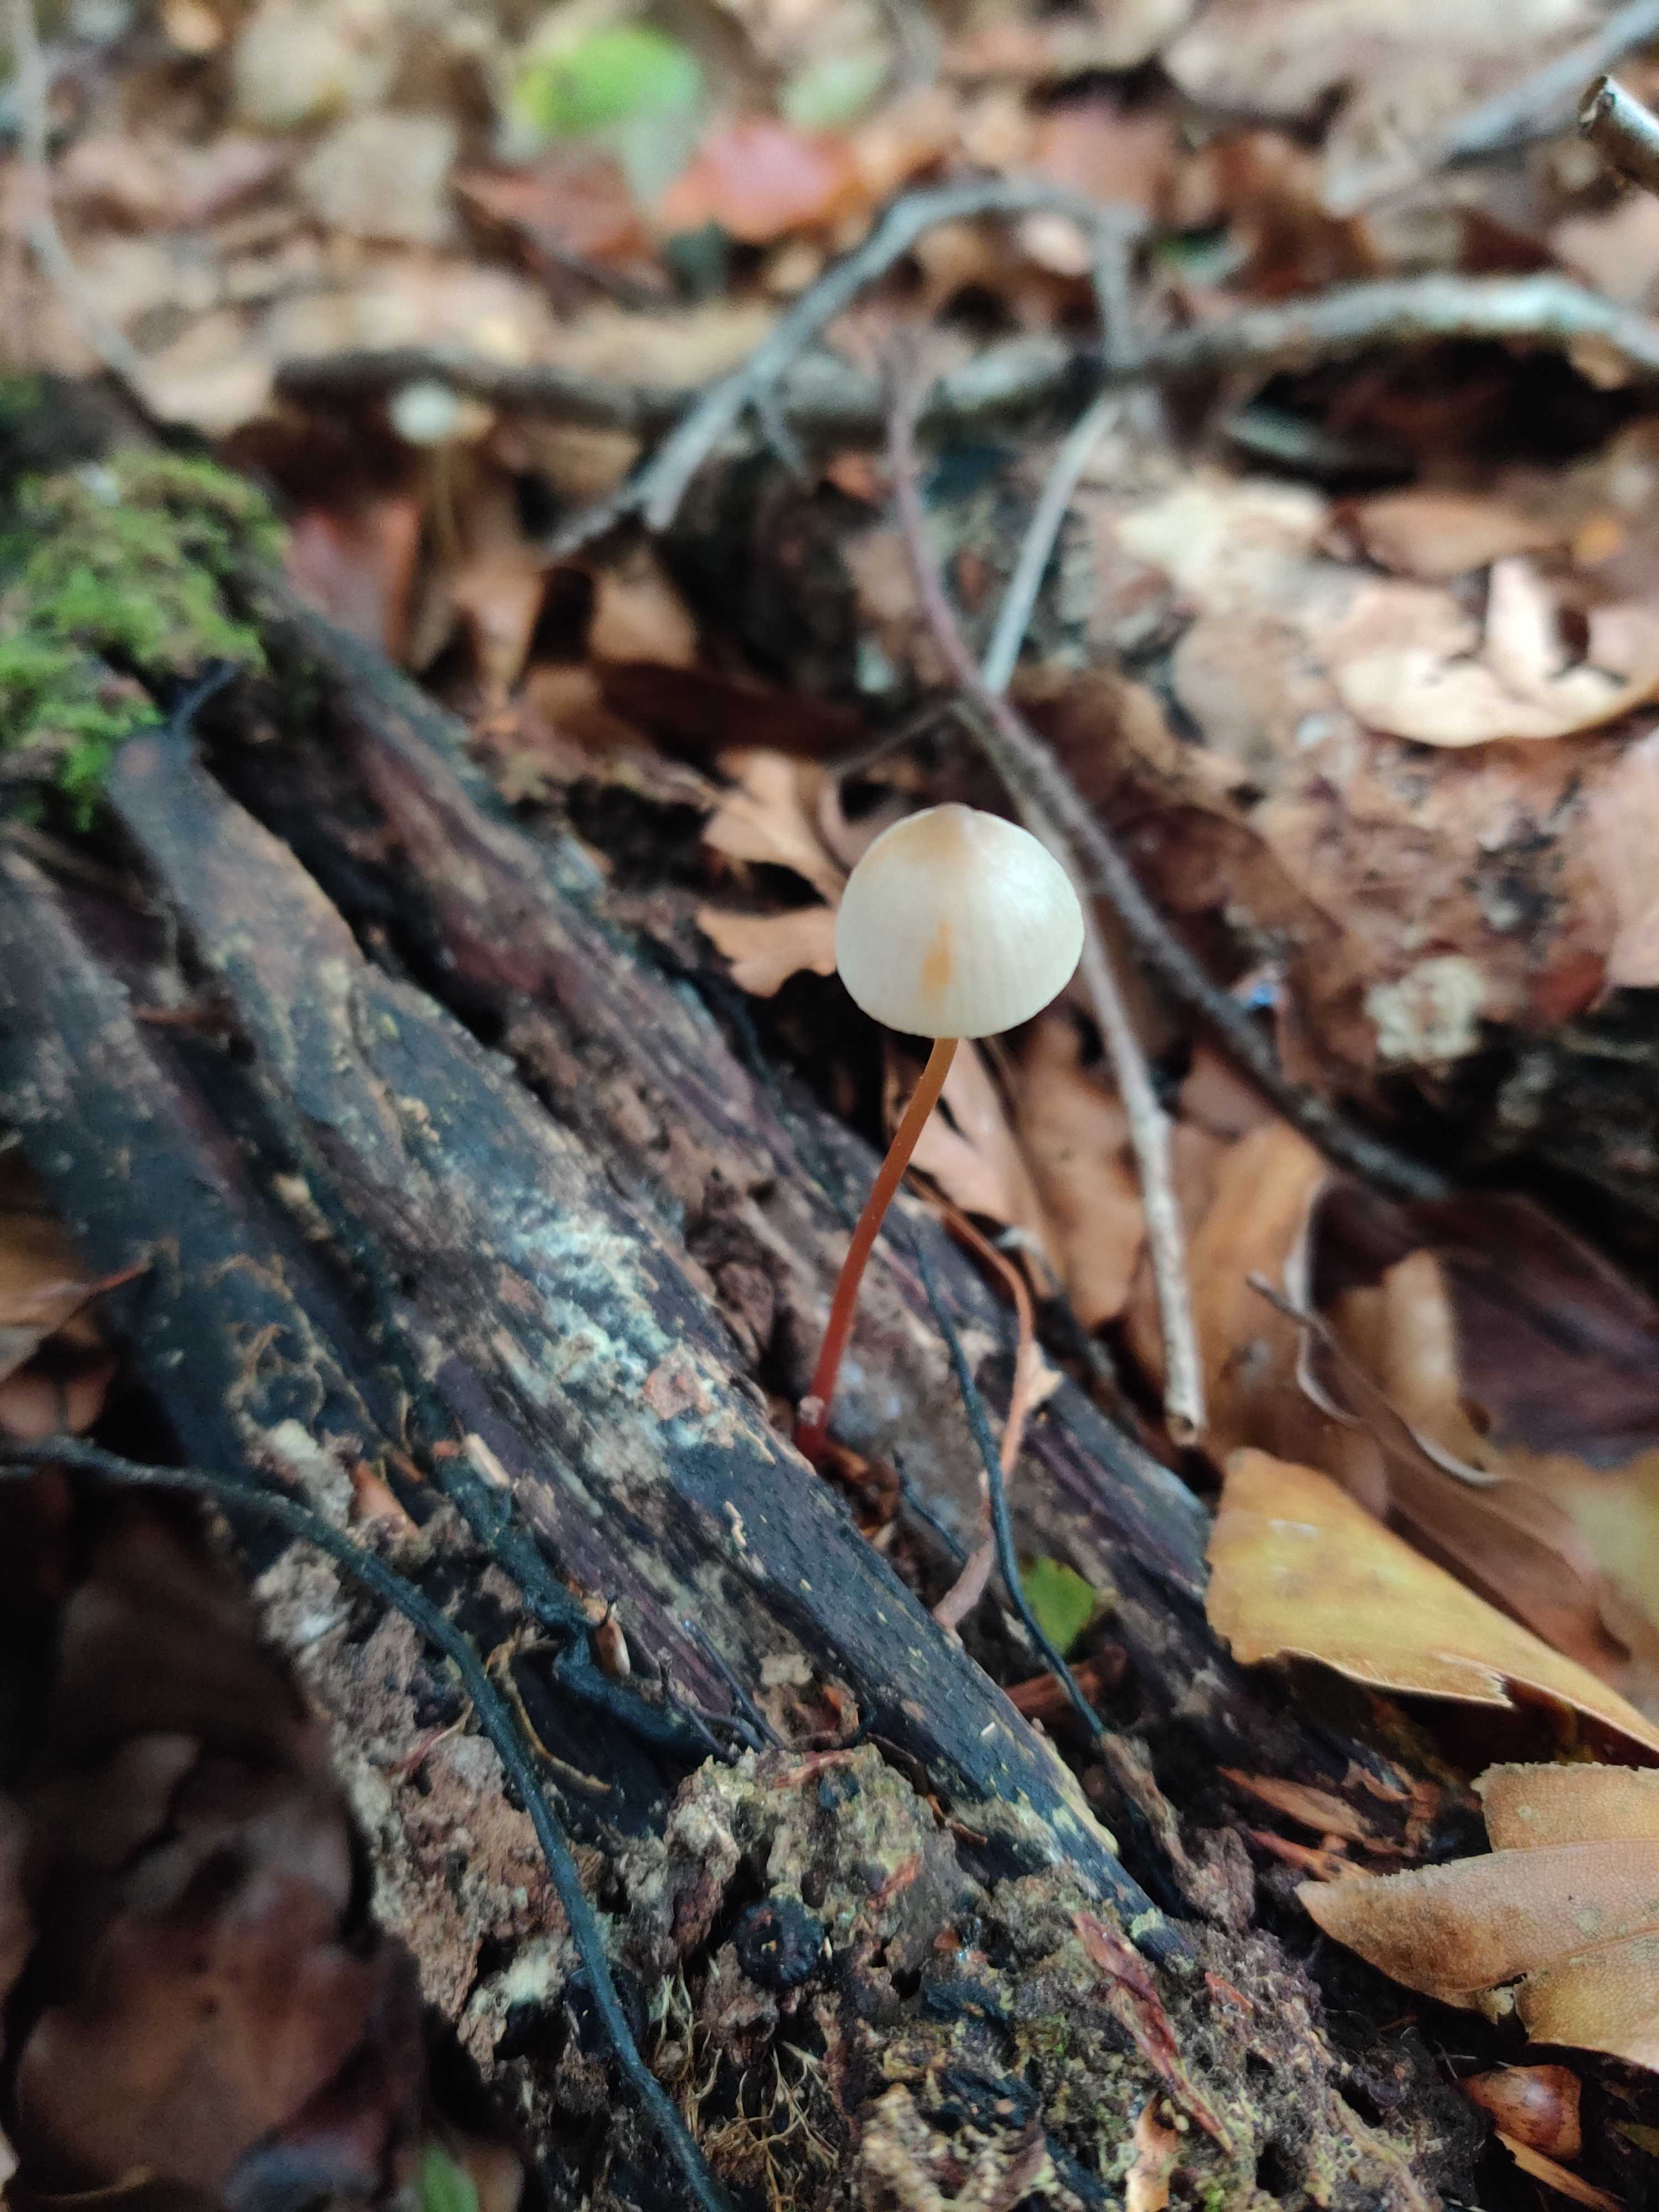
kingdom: Fungi
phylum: Basidiomycota
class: Agaricomycetes
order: Agaricales
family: Mycenaceae
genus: Mycena
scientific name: Mycena crocata
